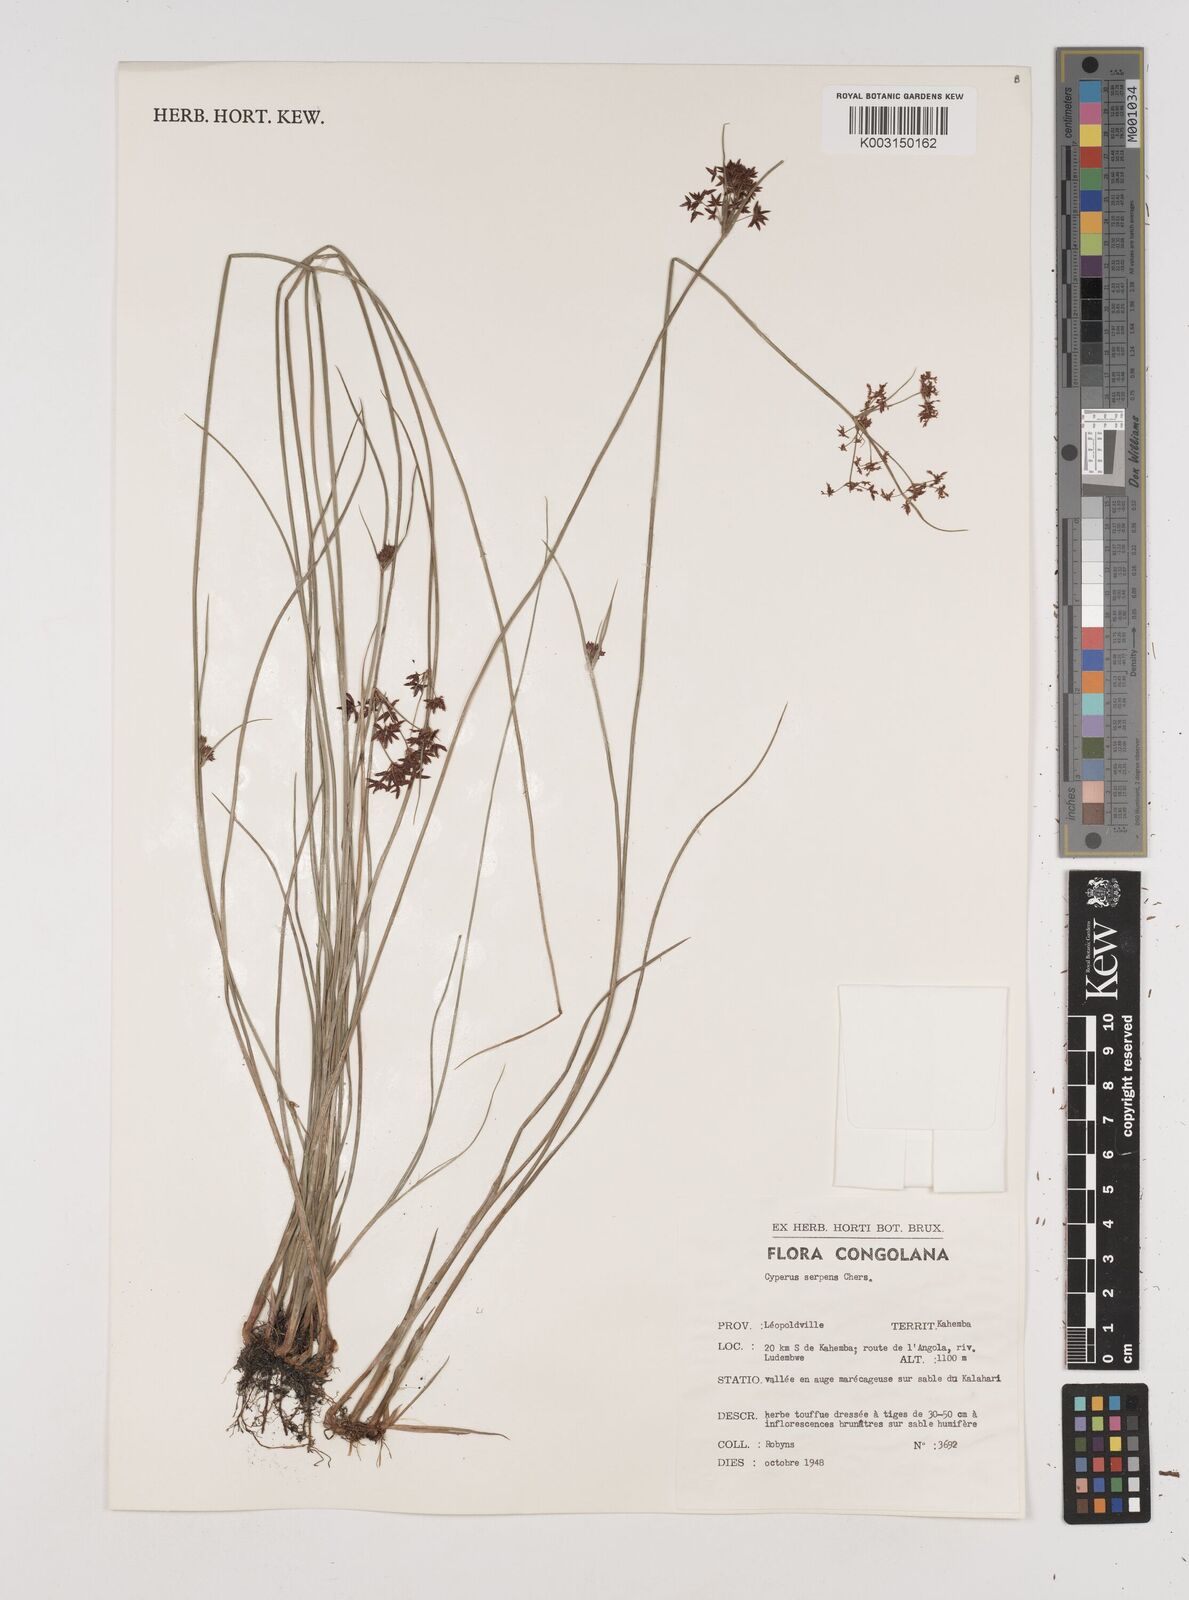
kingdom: Plantae
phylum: Tracheophyta
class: Liliopsida
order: Poales
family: Cyperaceae
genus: Cyperus
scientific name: Cyperus
